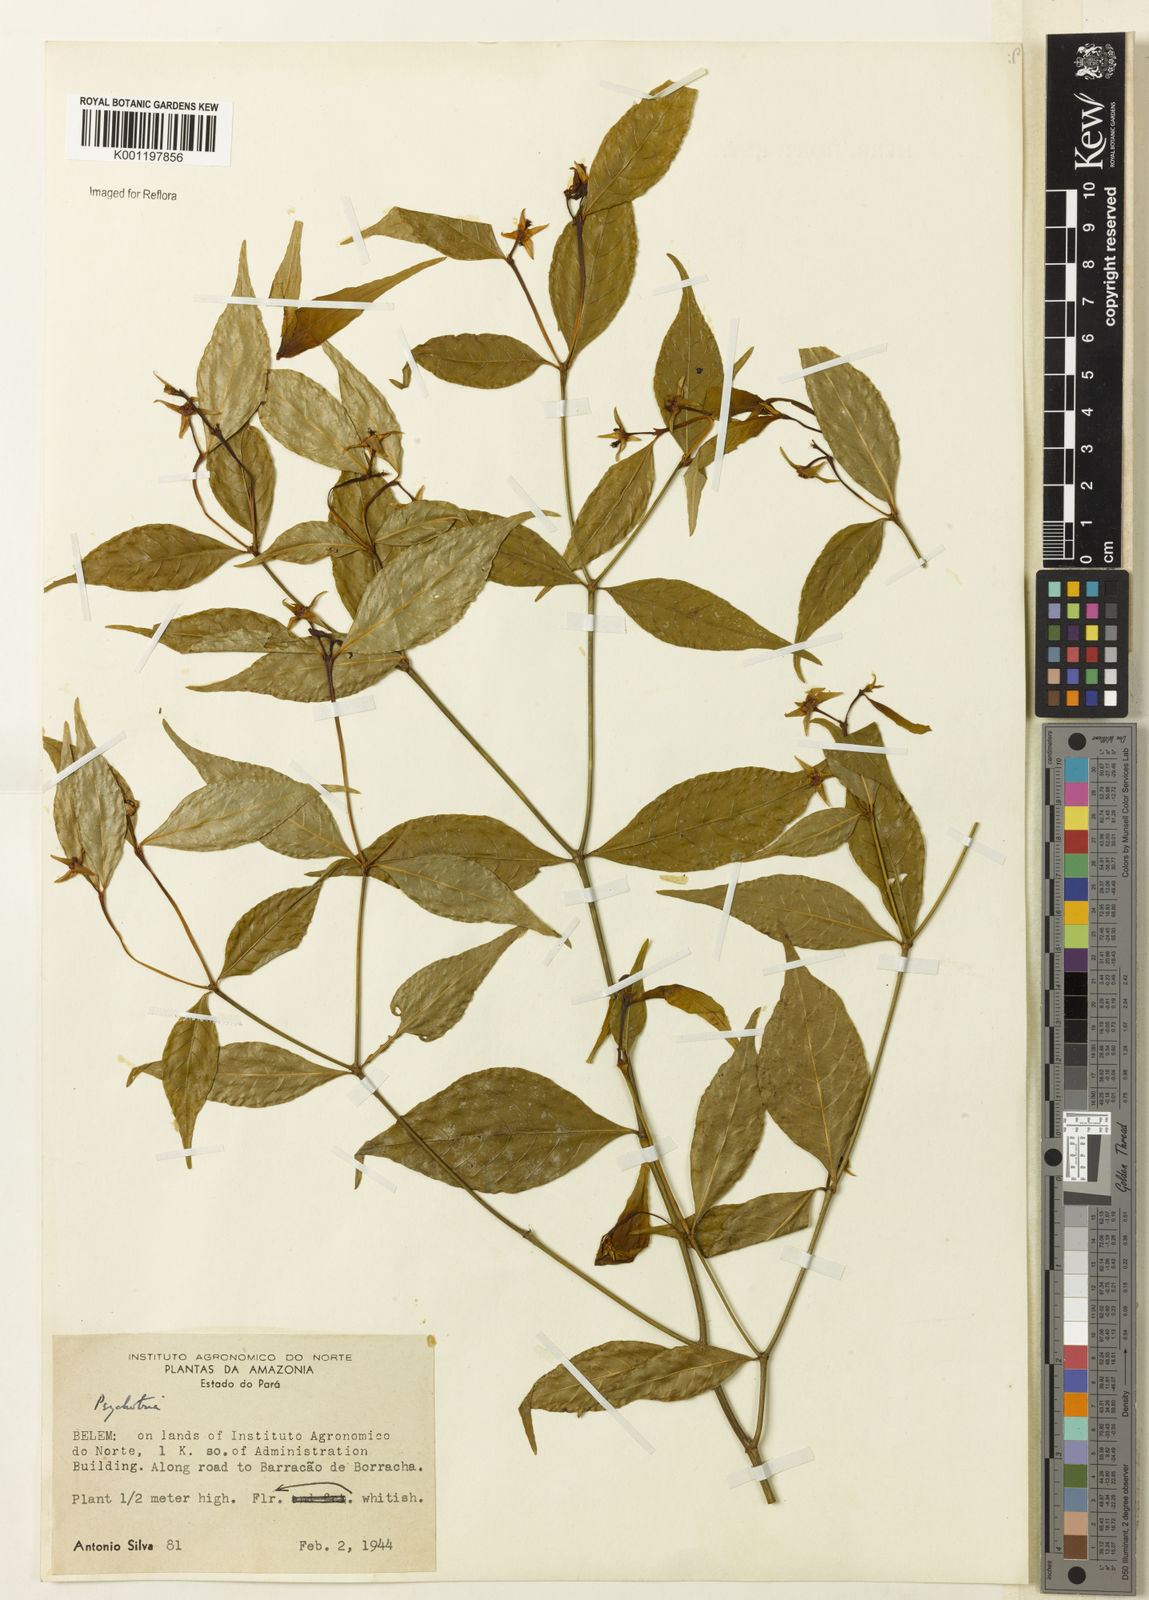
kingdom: Plantae
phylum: Tracheophyta
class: Magnoliopsida
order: Gentianales
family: Rubiaceae
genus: Psychotria
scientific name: Psychotria
